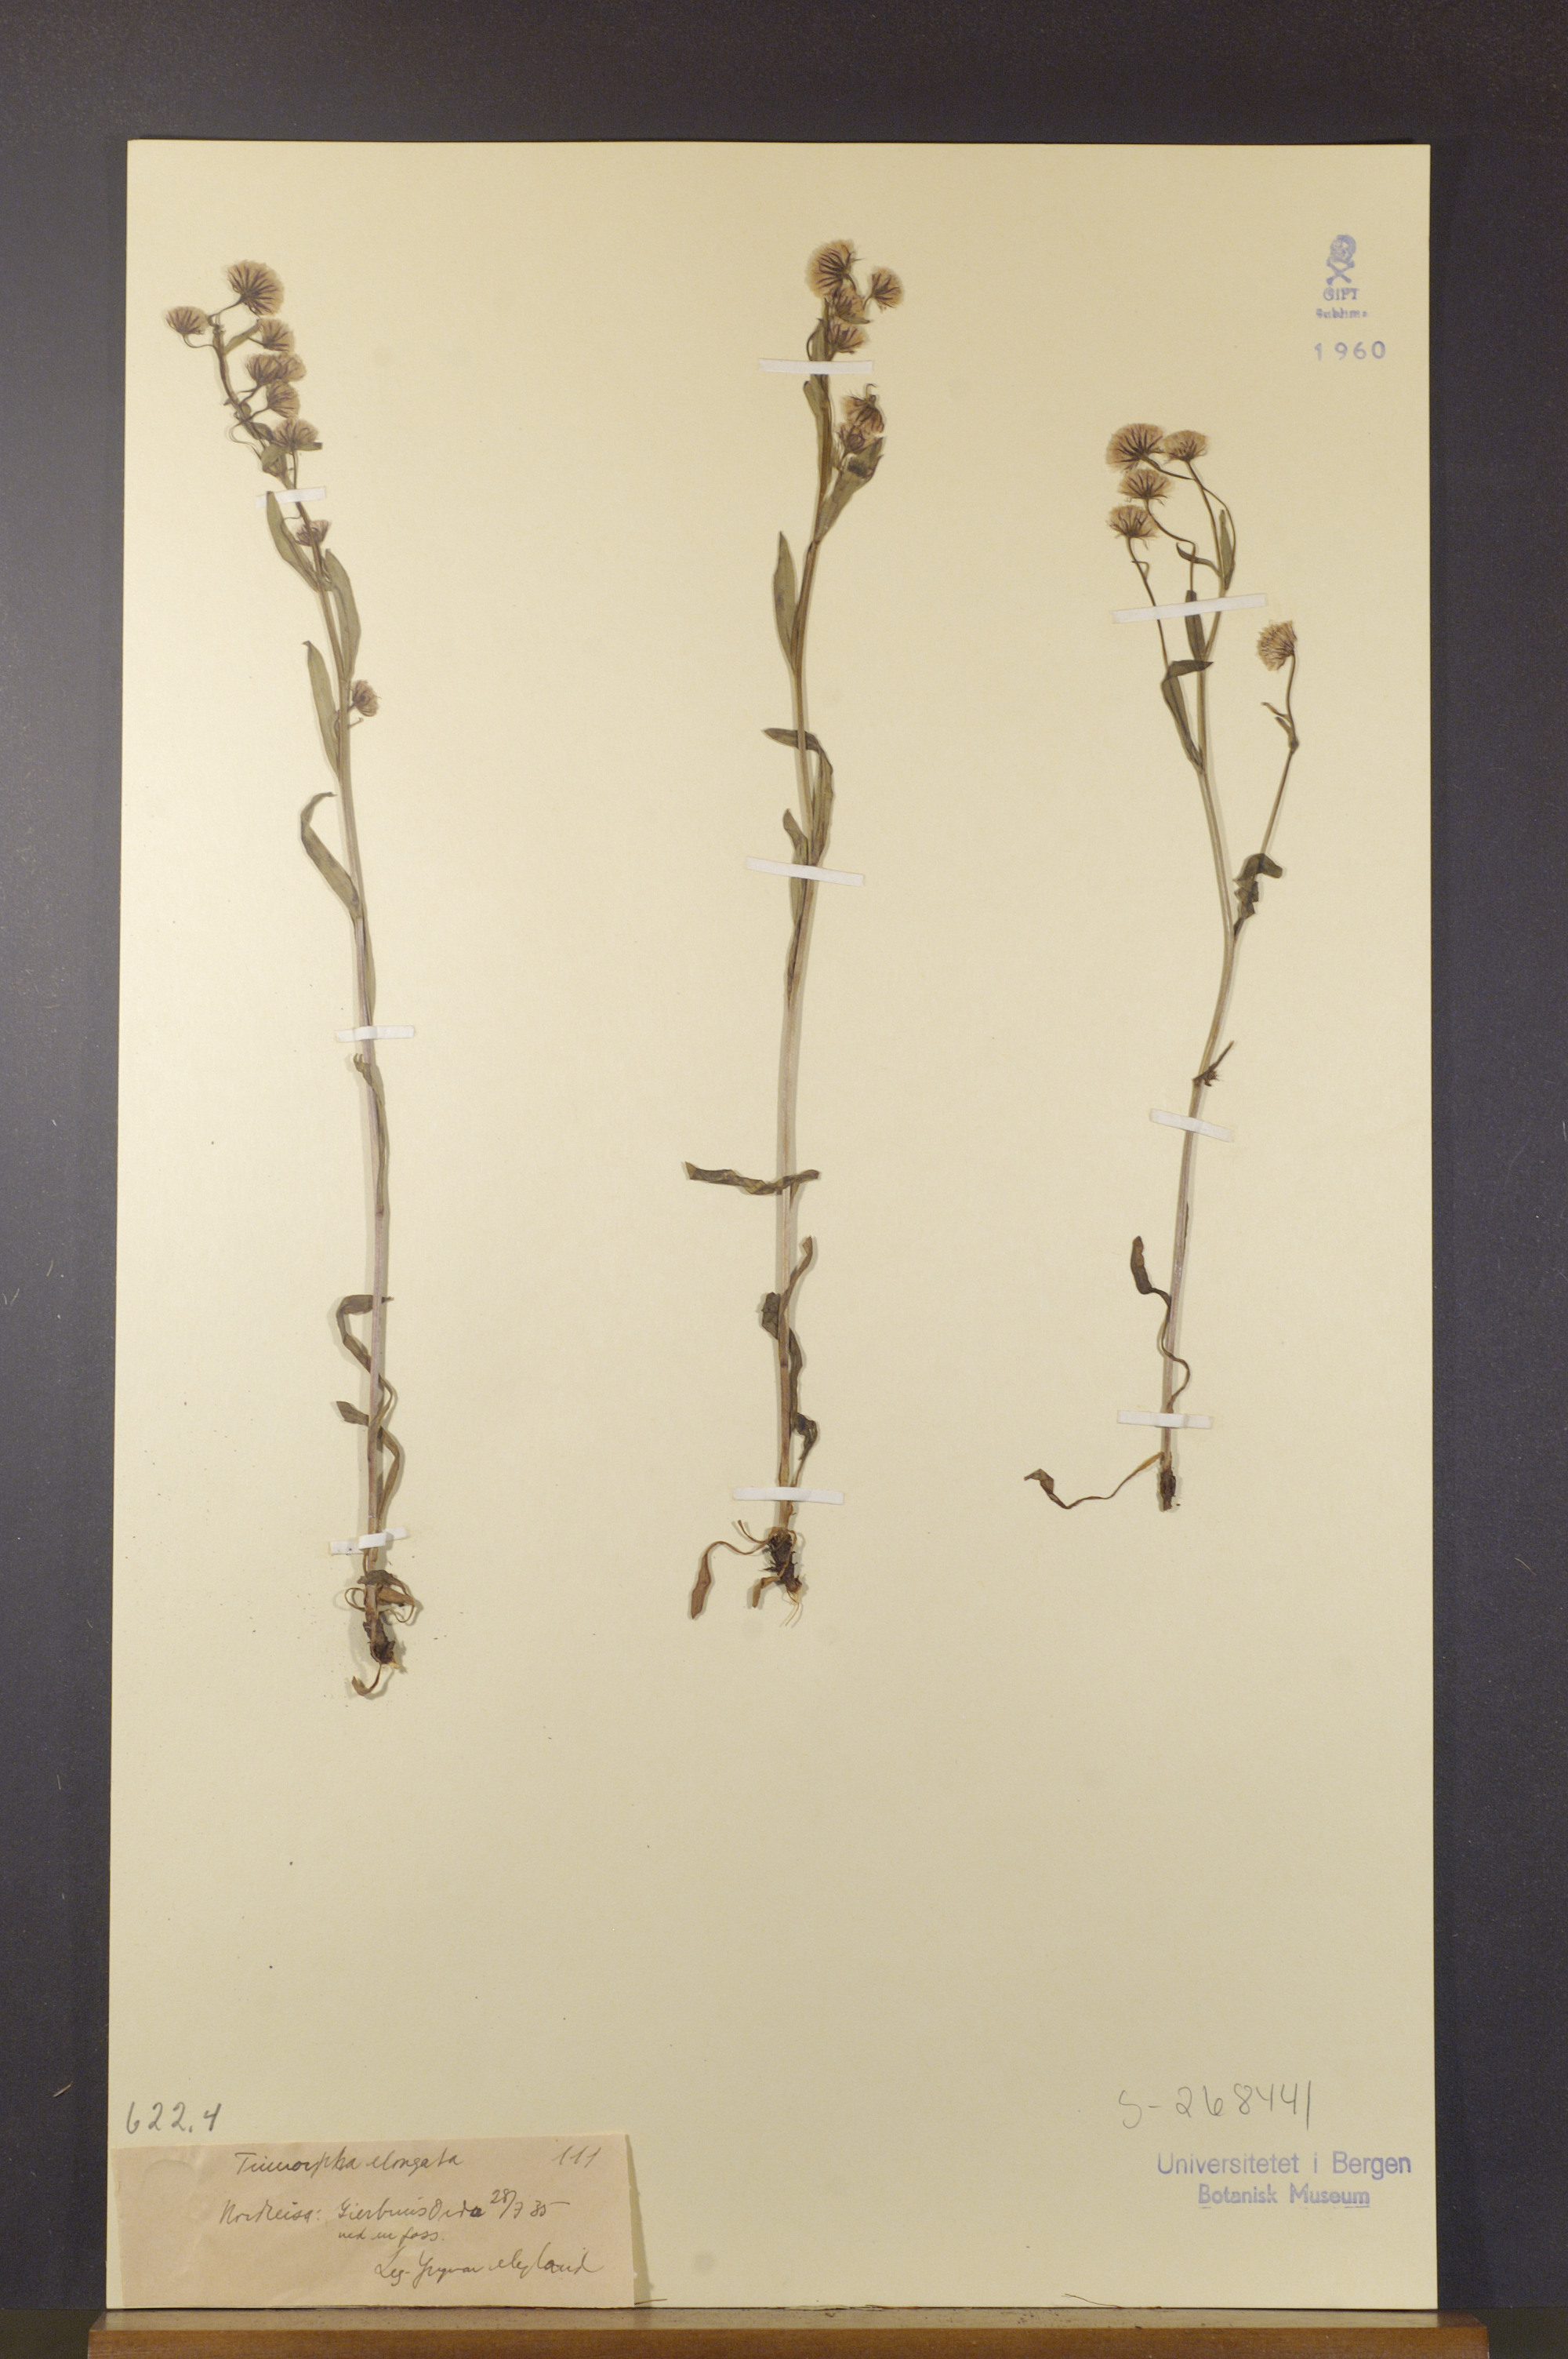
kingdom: Plantae
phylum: Tracheophyta
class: Magnoliopsida
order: Asterales
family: Asteraceae
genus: Erigeron
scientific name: Erigeron politus
